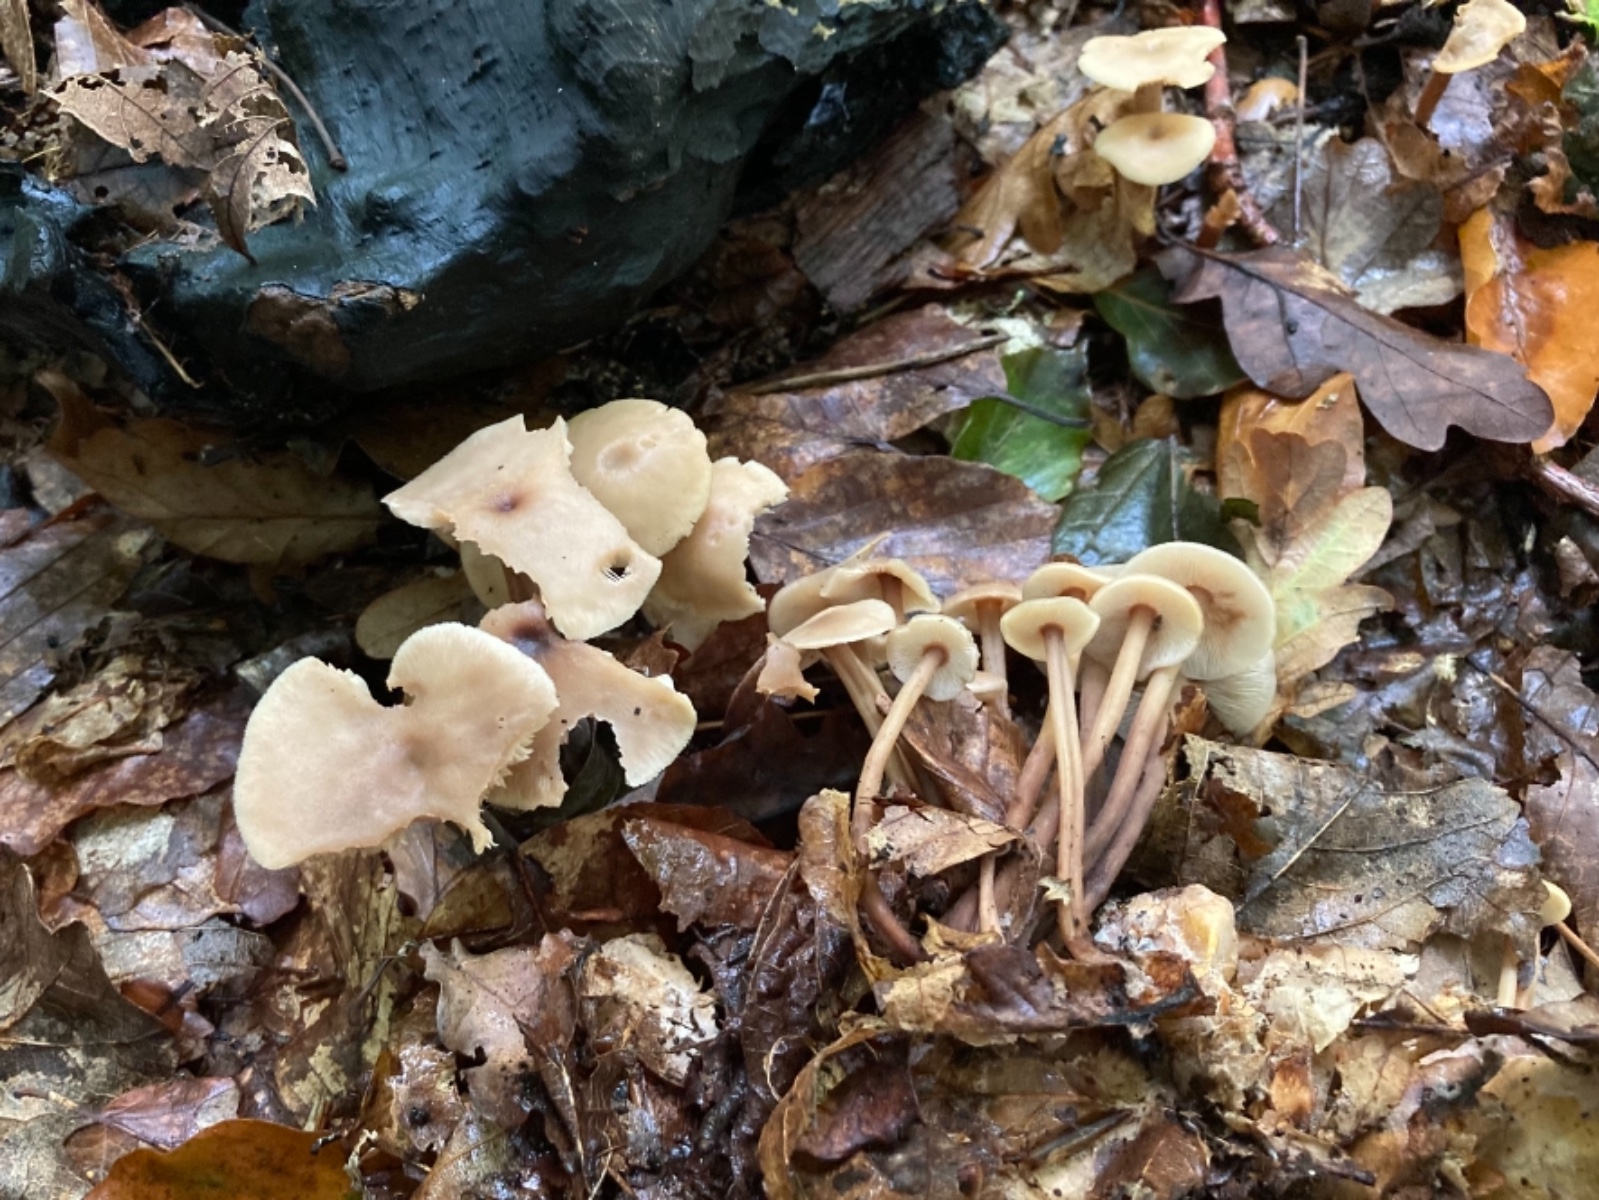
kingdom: Fungi
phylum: Basidiomycota
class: Agaricomycetes
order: Agaricales
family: Omphalotaceae
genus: Collybiopsis
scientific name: Collybiopsis confluens
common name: knippe-fladhat
